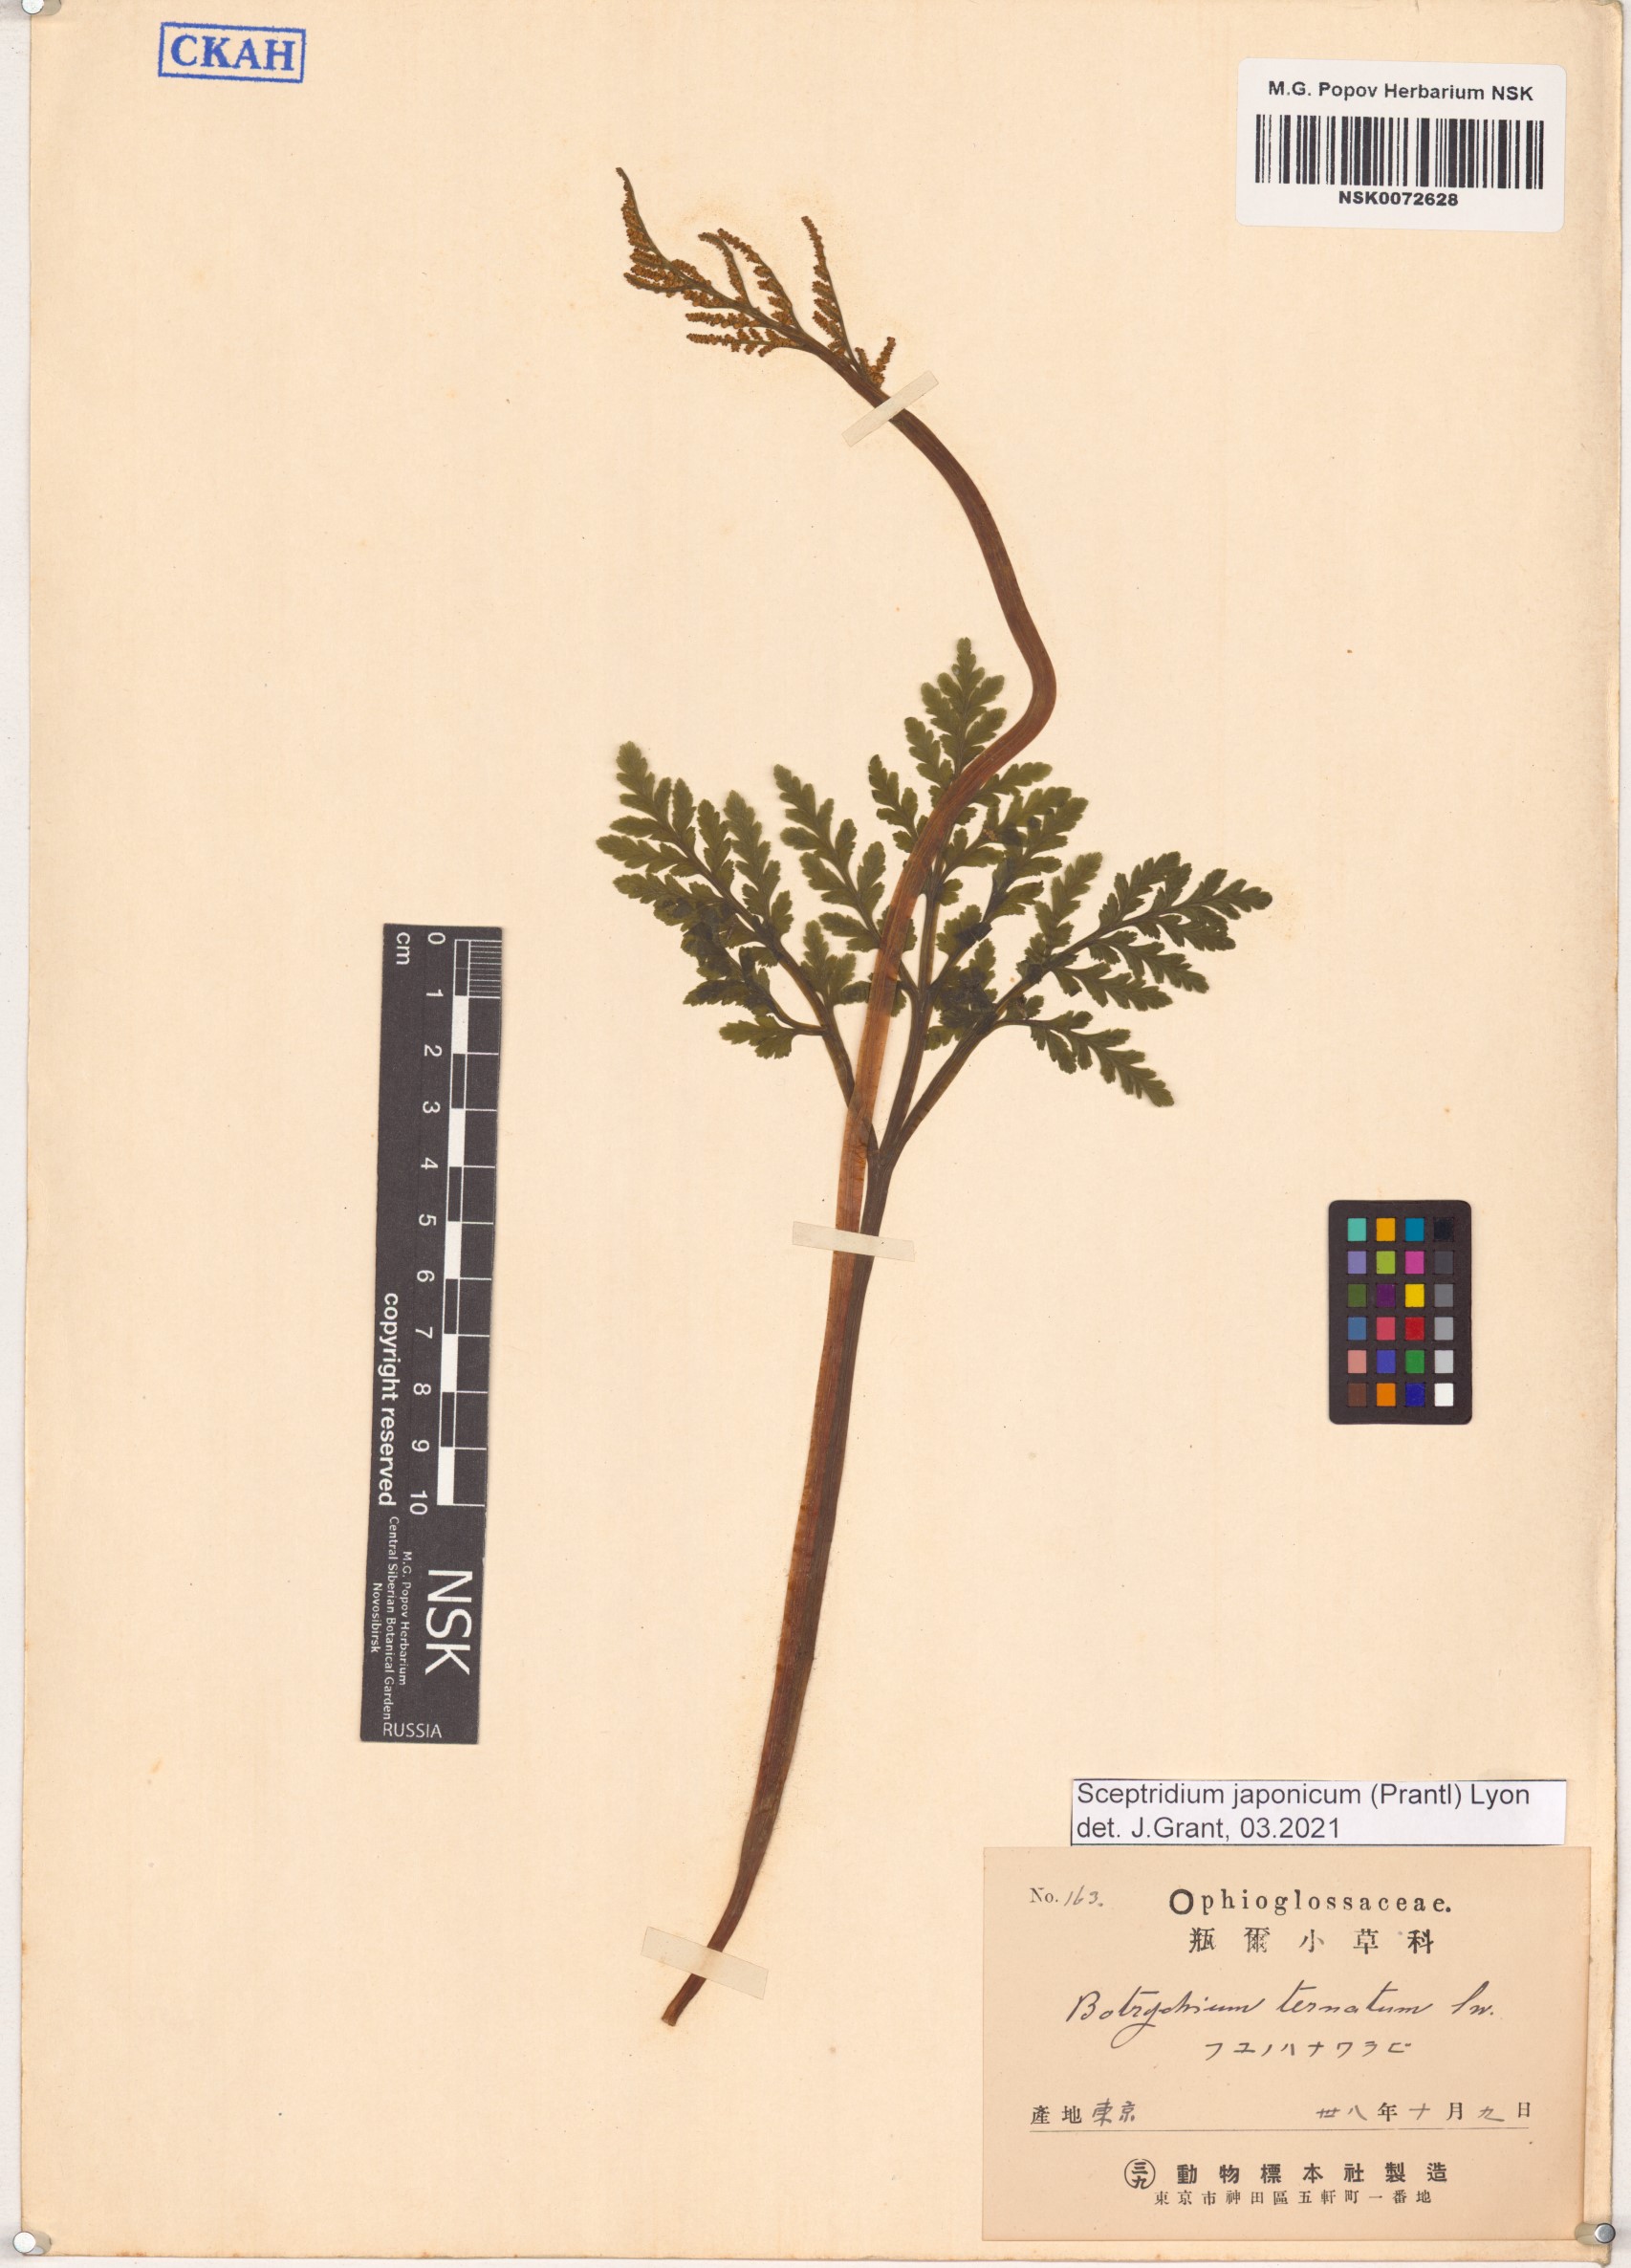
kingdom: Plantae
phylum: Tracheophyta
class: Polypodiopsida
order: Ophioglossales
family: Ophioglossaceae
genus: Sceptridium
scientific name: Sceptridium japonicum
